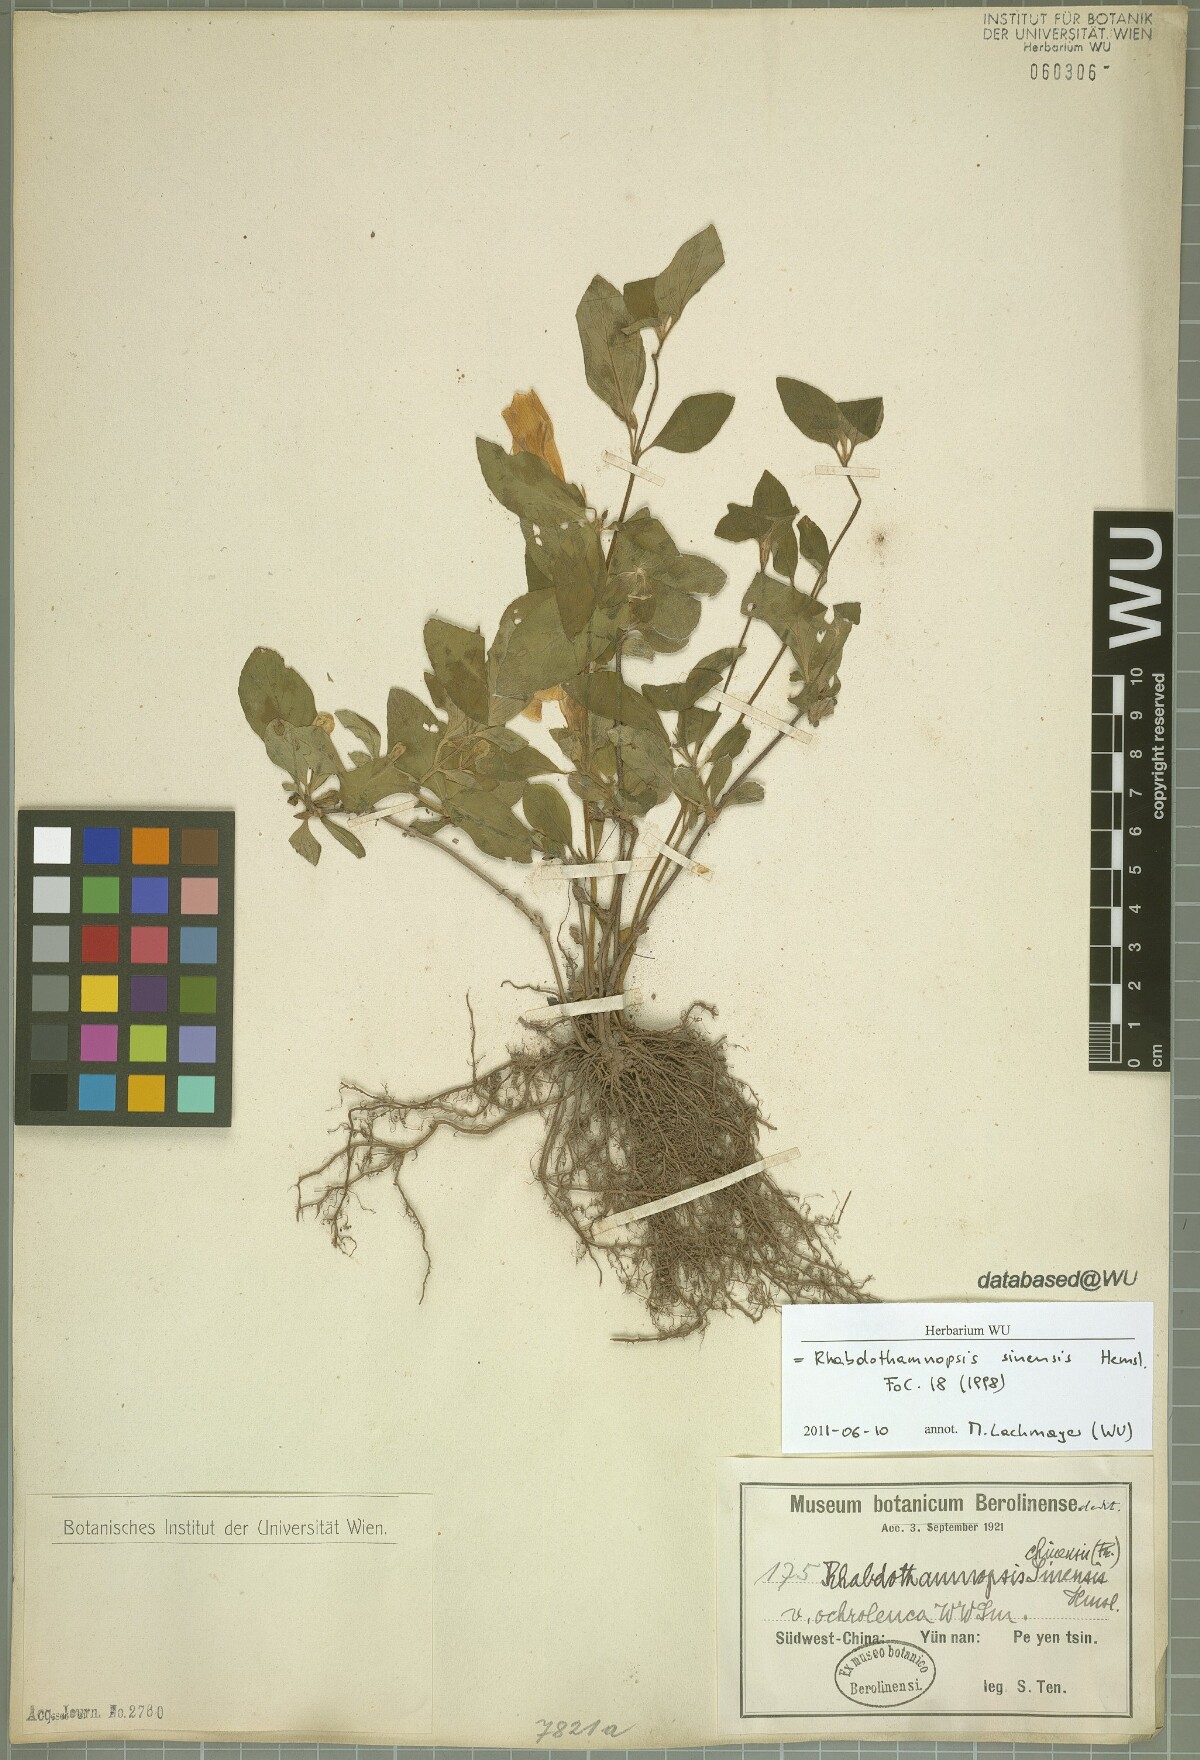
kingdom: Plantae
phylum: Tracheophyta
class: Magnoliopsida
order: Lamiales
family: Gesneriaceae
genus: Rhabdothamnopsis
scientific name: Rhabdothamnopsis sinensis
